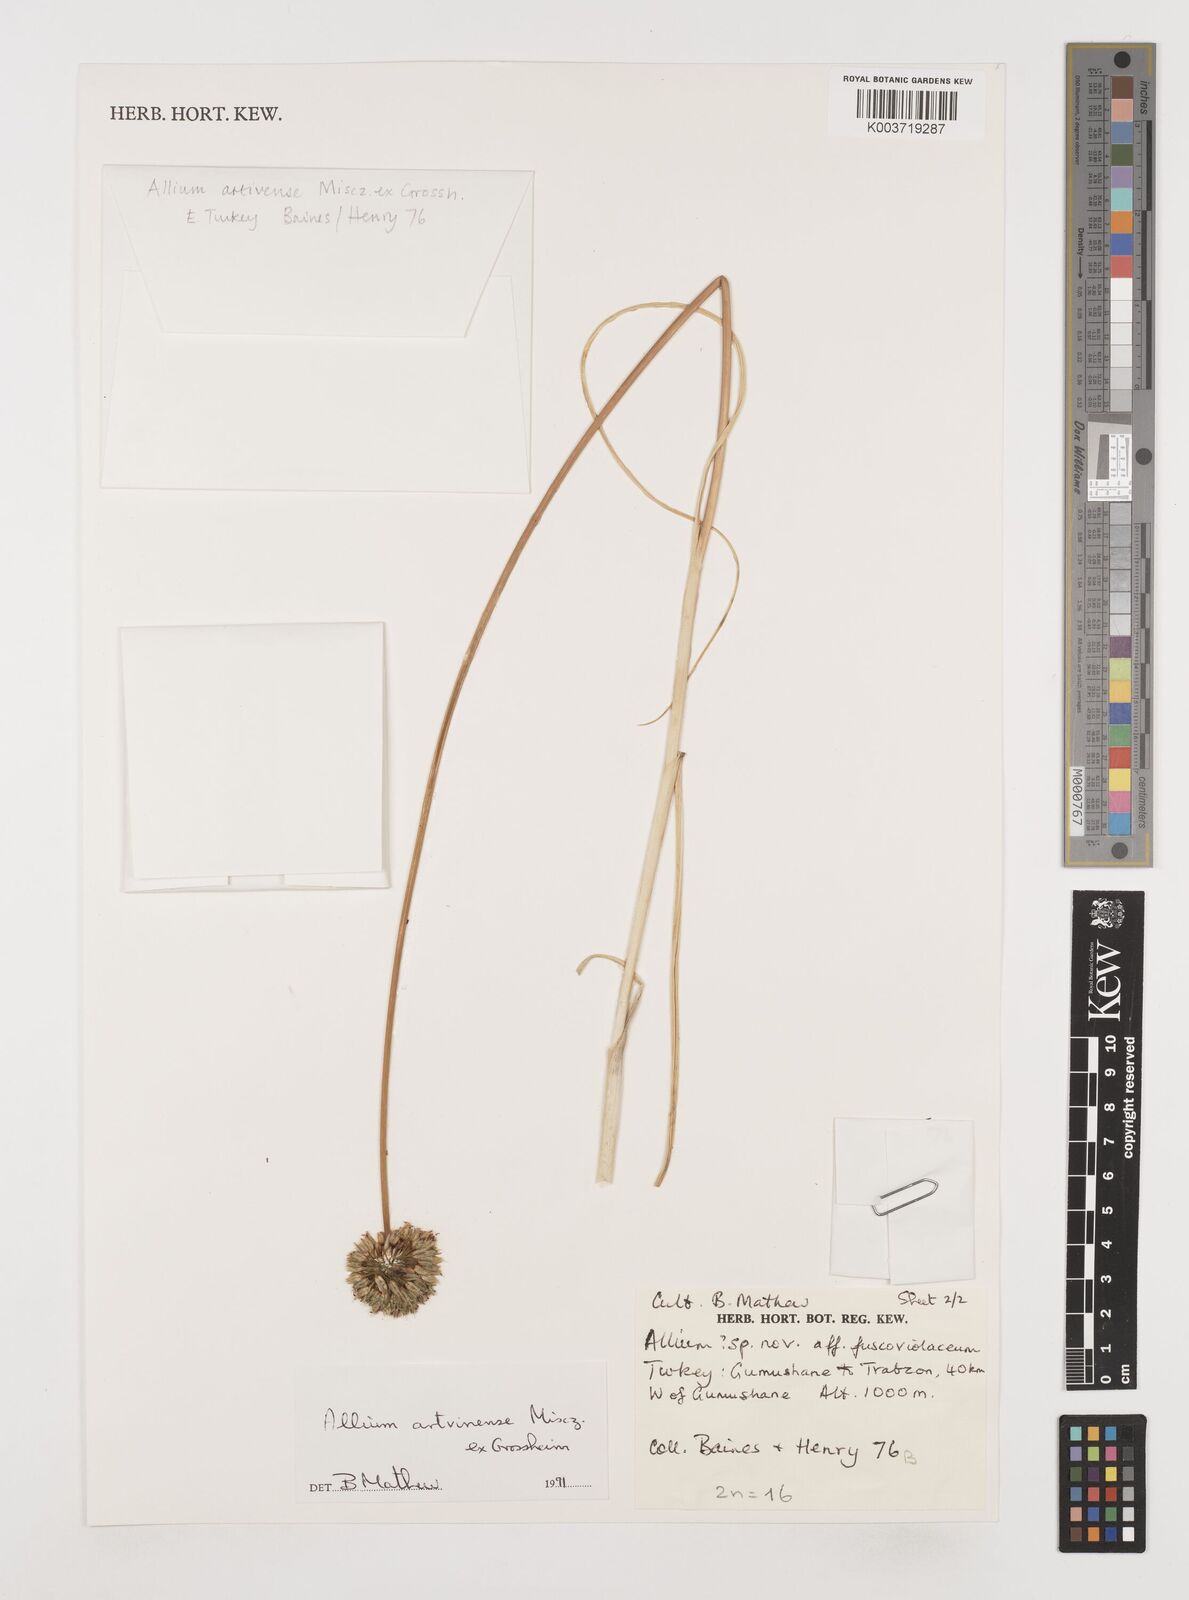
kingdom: Plantae
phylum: Tracheophyta
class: Liliopsida
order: Asparagales
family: Amaryllidaceae
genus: Allium
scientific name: Allium affine
